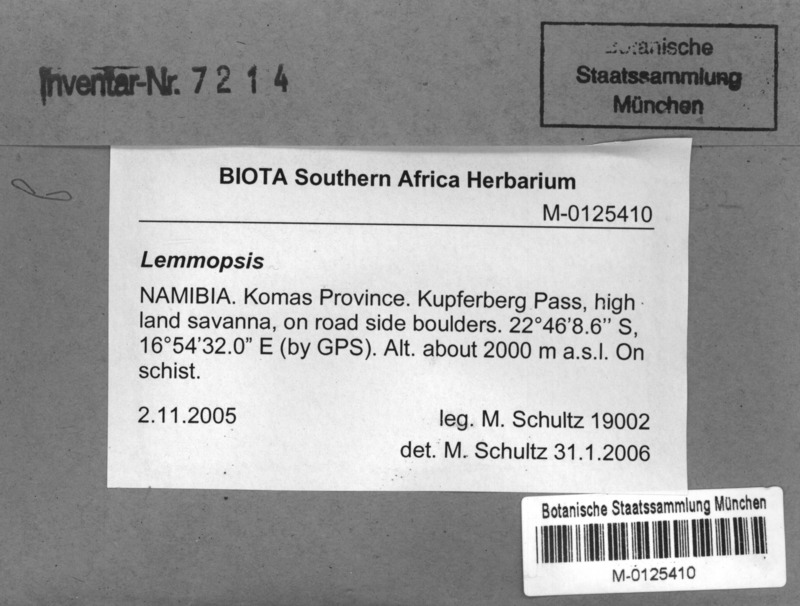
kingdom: Fungi
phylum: Ascomycota
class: Lichinomycetes
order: Lichinales
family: Lichinaceae
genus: Lemmopsis
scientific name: Lemmopsis
